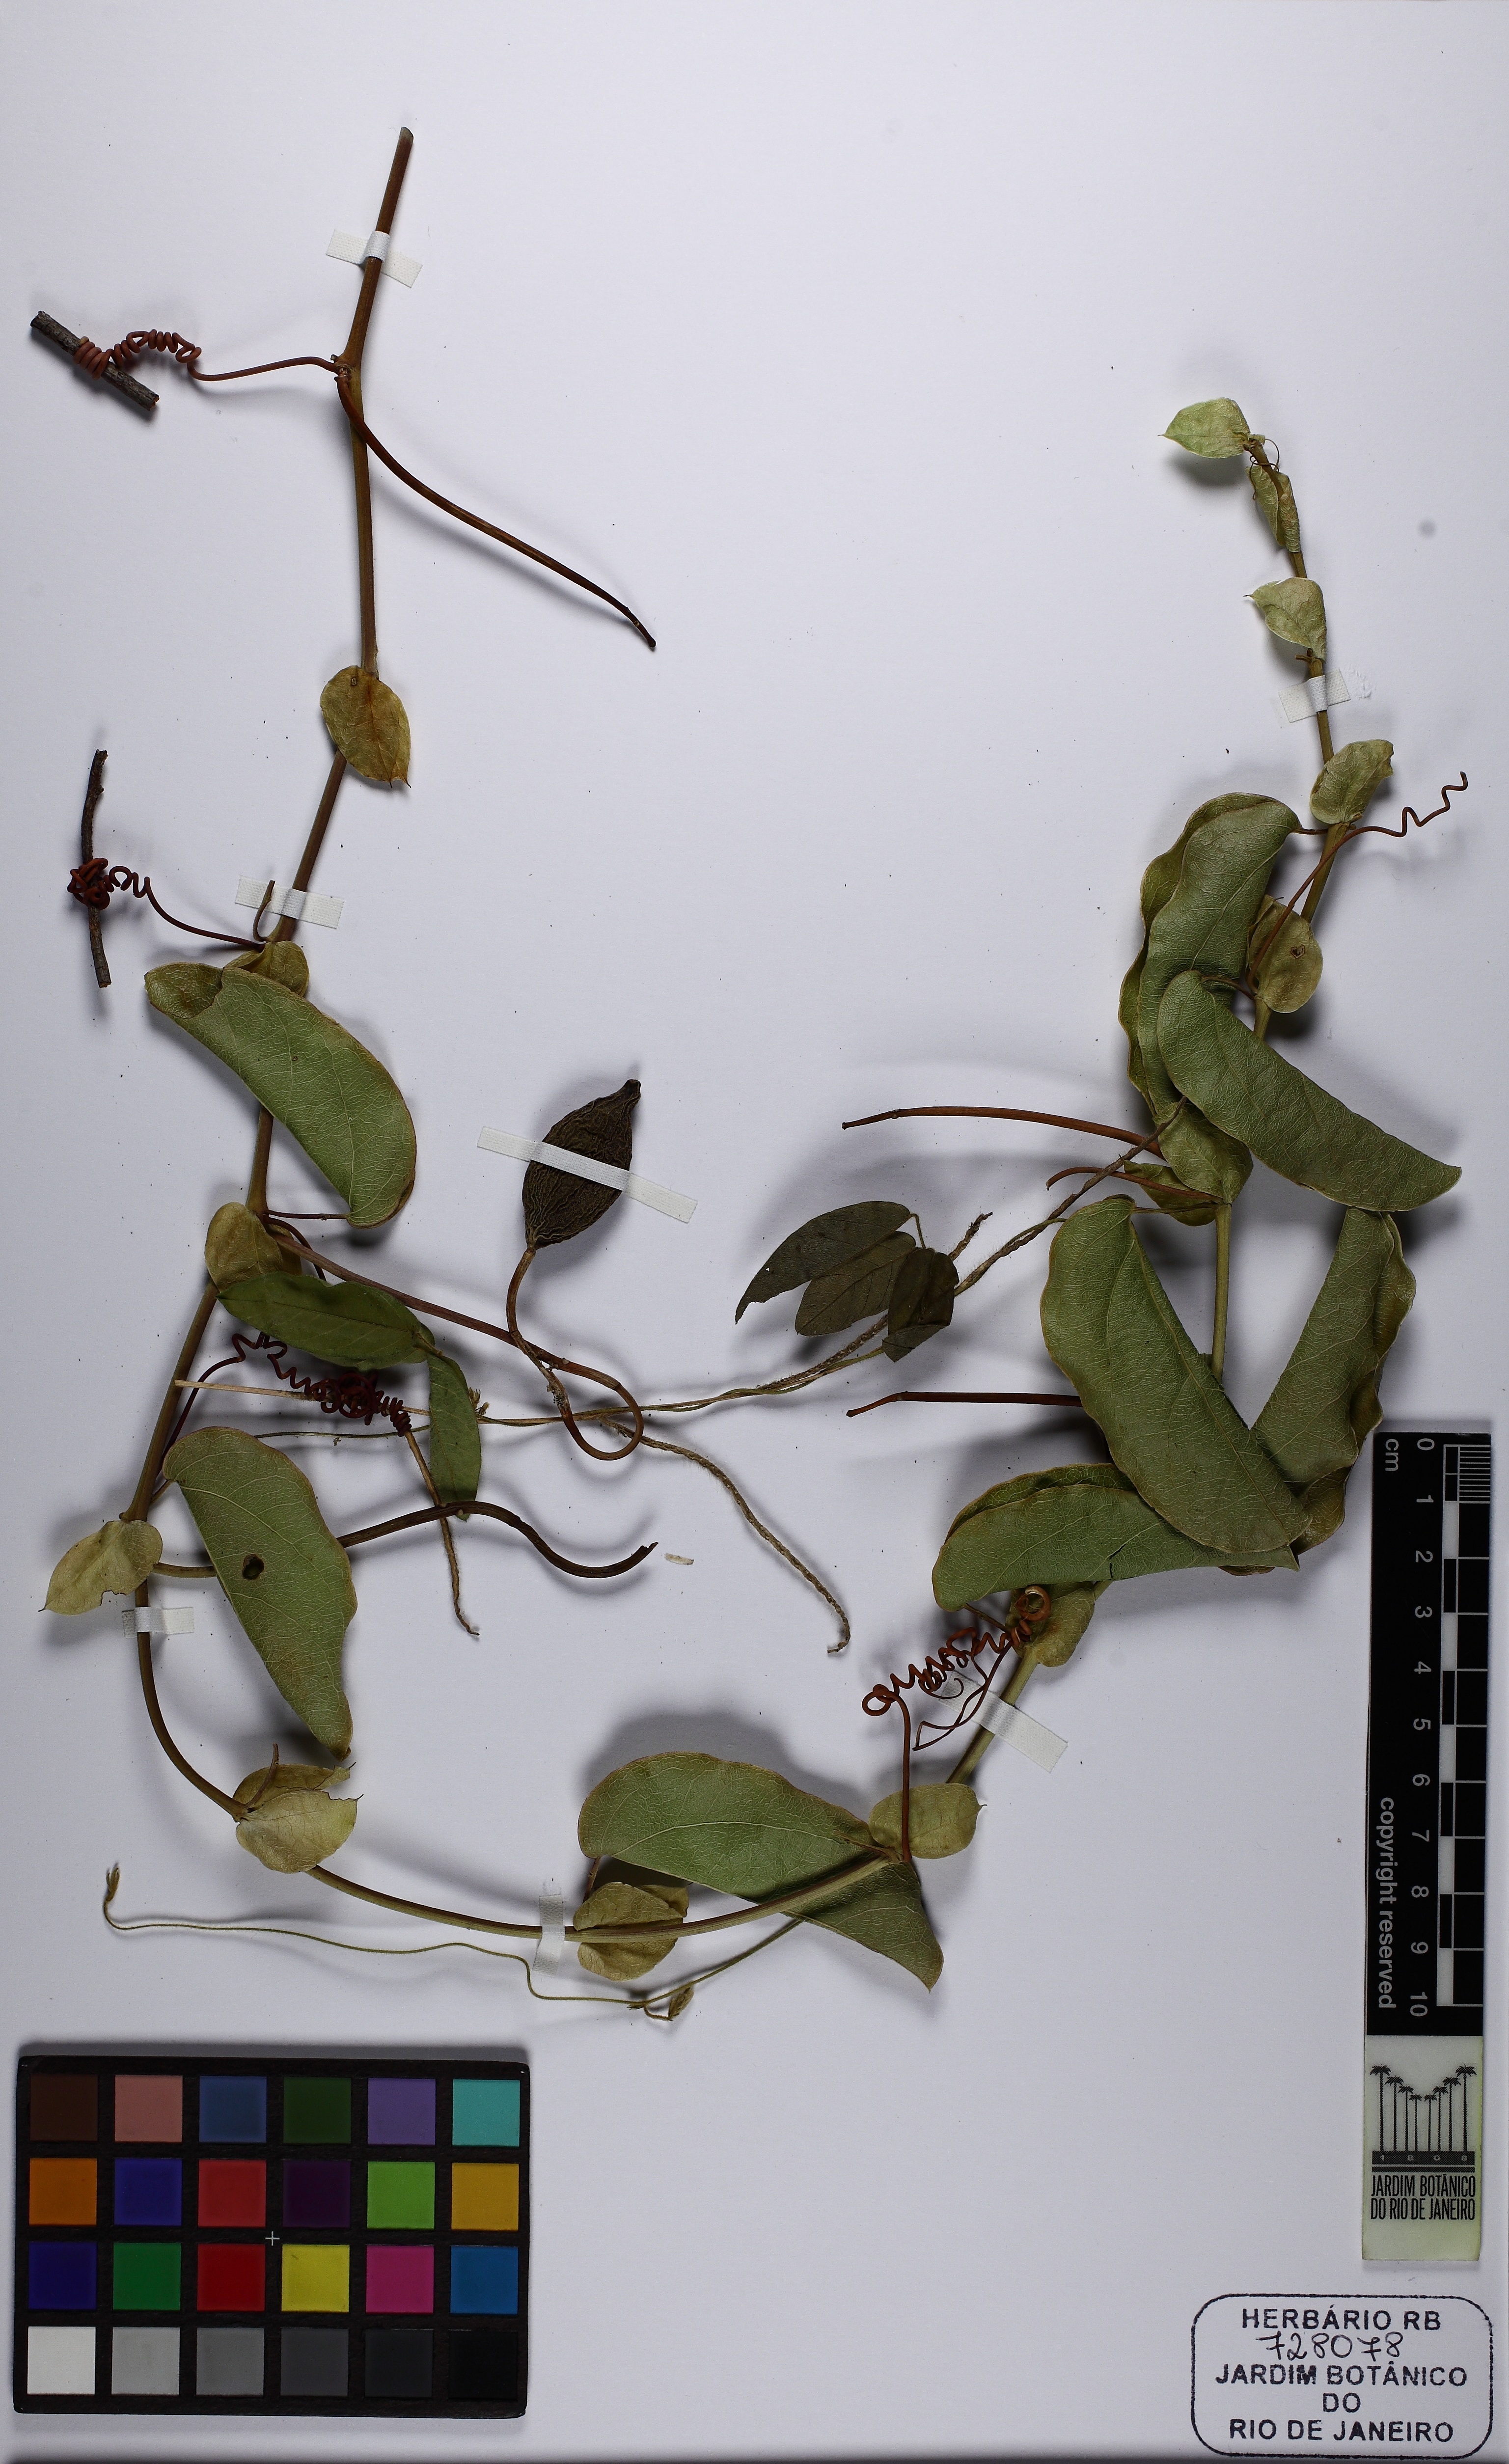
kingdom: Plantae
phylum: Tracheophyta
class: Magnoliopsida
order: Malpighiales
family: Passifloraceae
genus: Passiflora
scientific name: Passiflora silvestris
